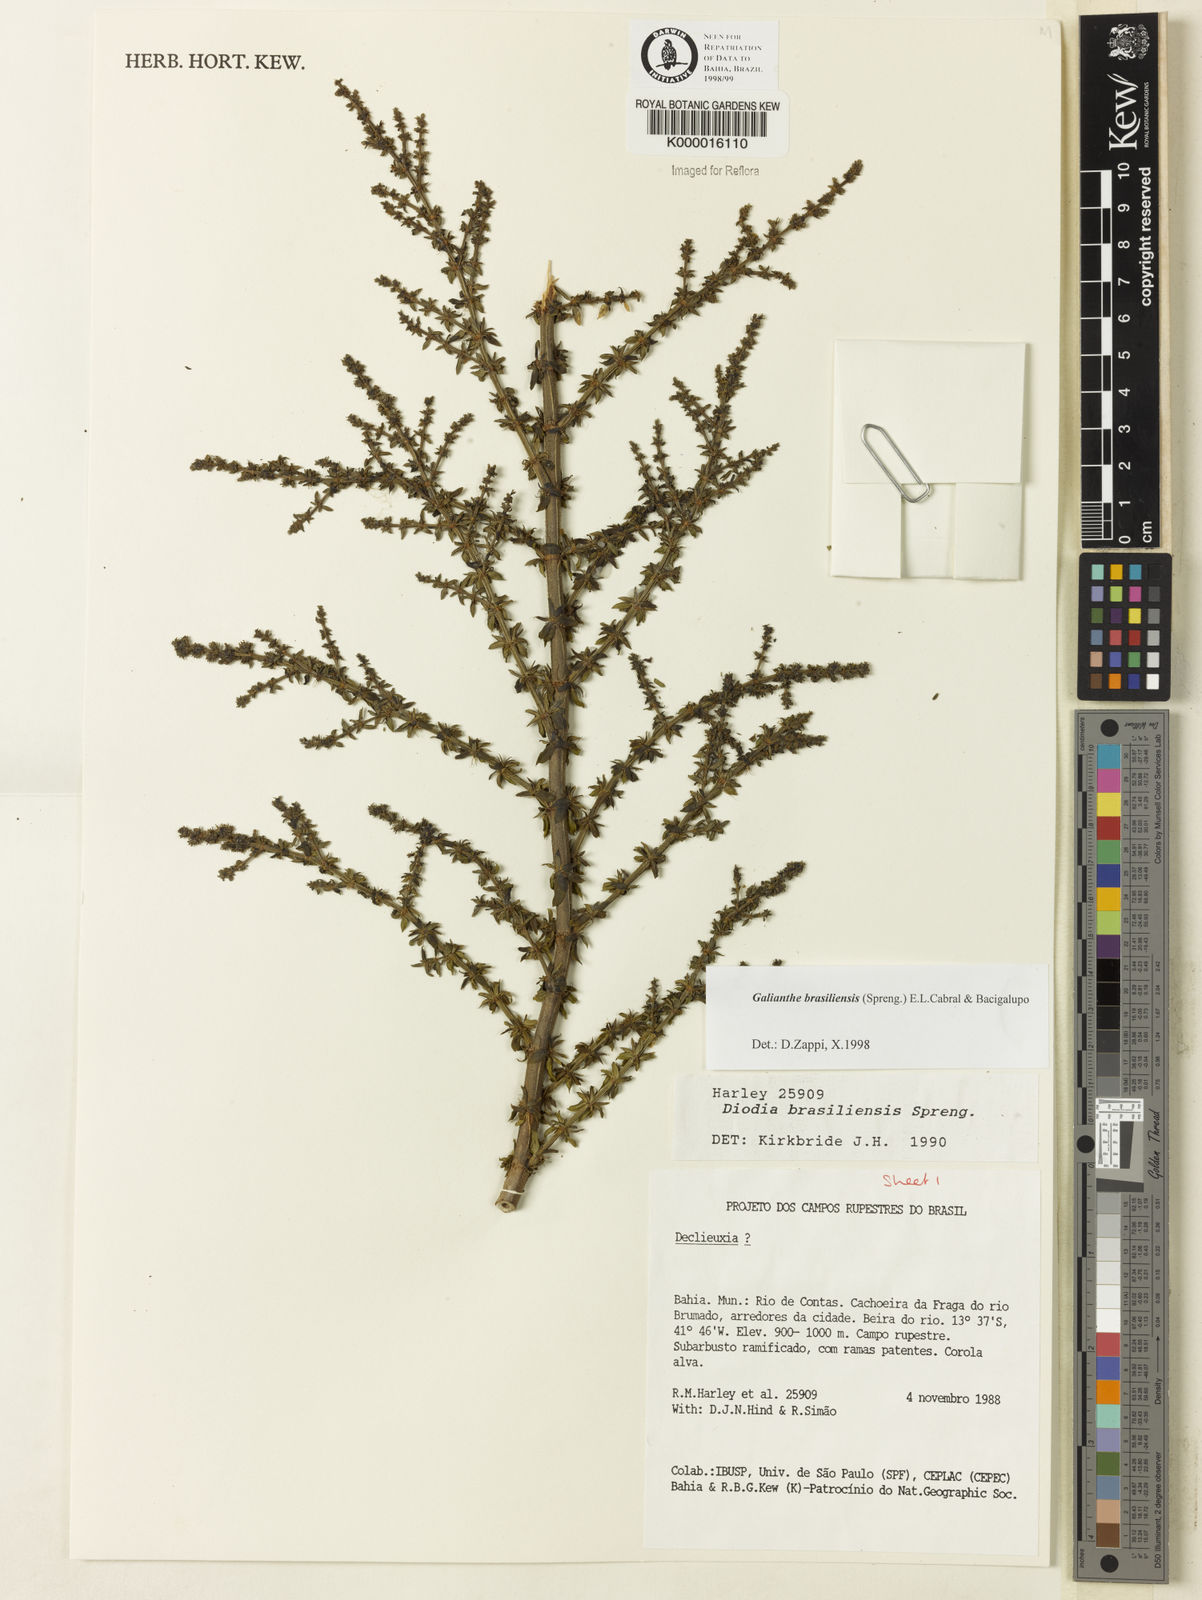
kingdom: Plantae
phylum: Tracheophyta
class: Magnoliopsida
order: Gentianales
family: Rubiaceae
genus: Galianthe
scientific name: Galianthe brasiliensis
